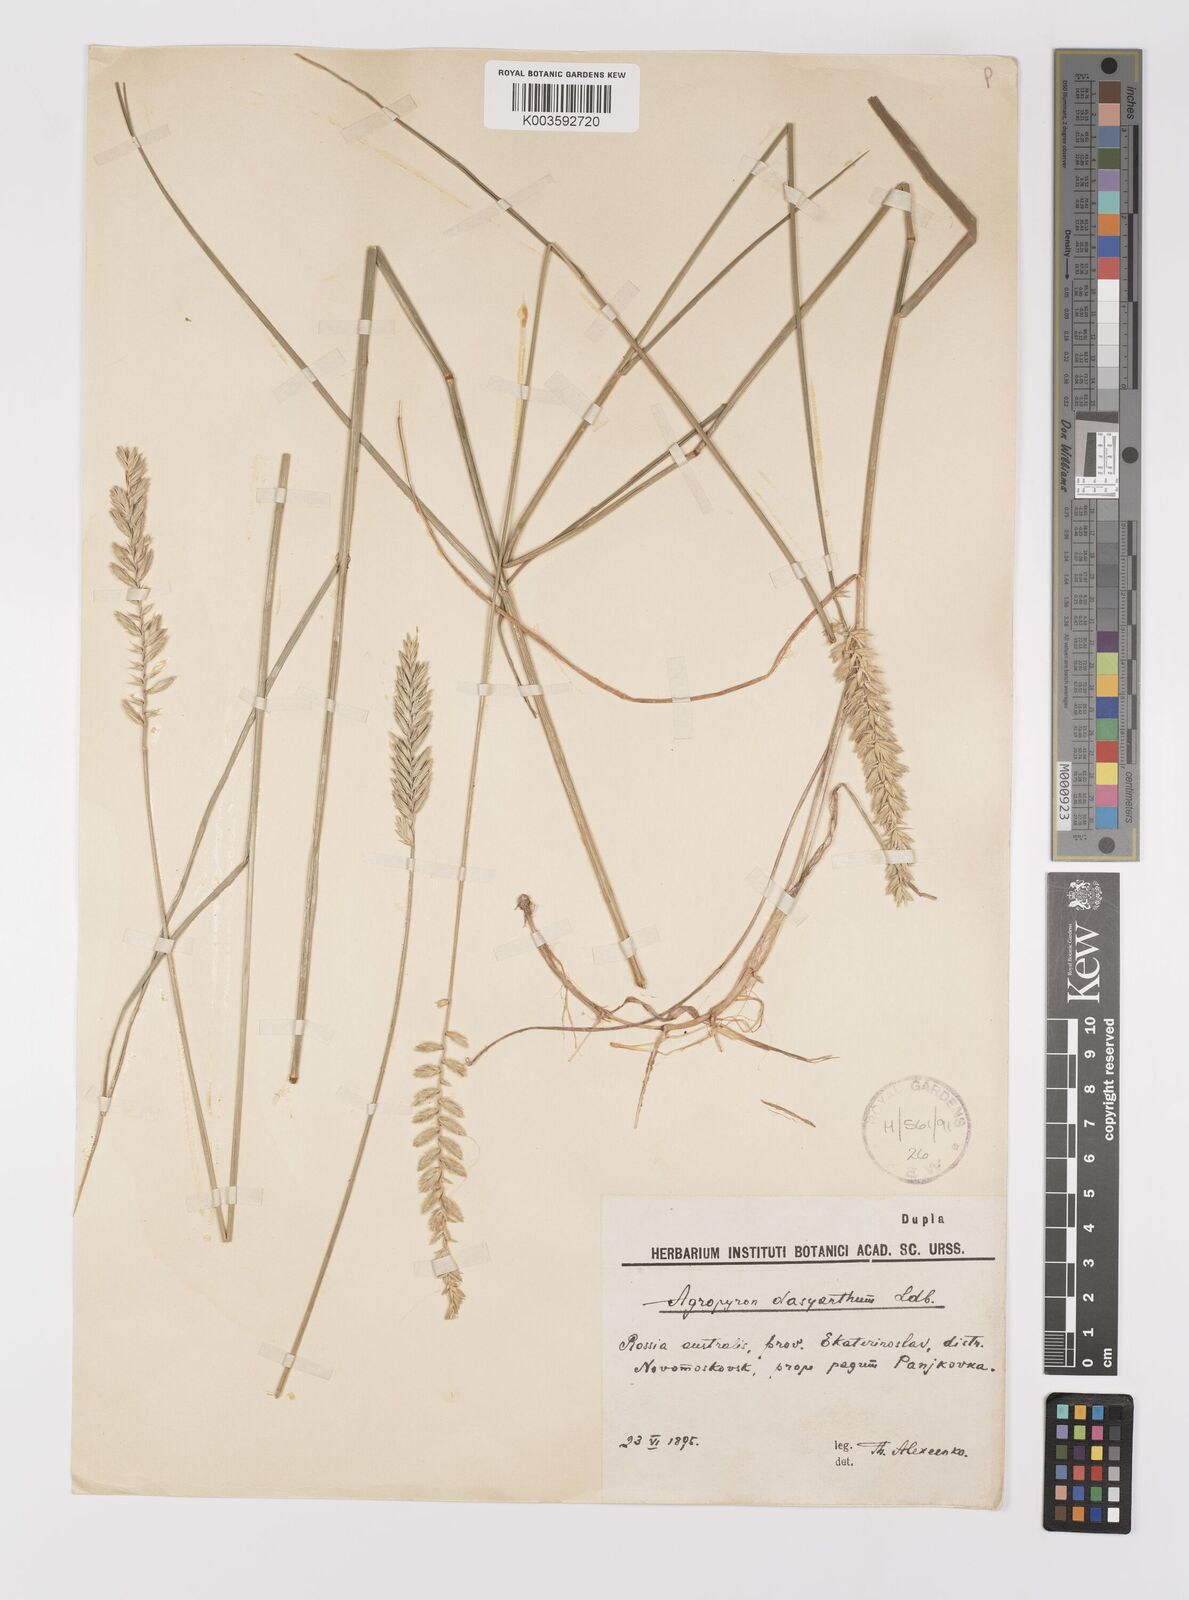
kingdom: Plantae
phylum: Tracheophyta
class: Liliopsida
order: Poales
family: Poaceae
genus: Agropyron
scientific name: Agropyron dasyanthum
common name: Edge flowered crested wheatgrass
